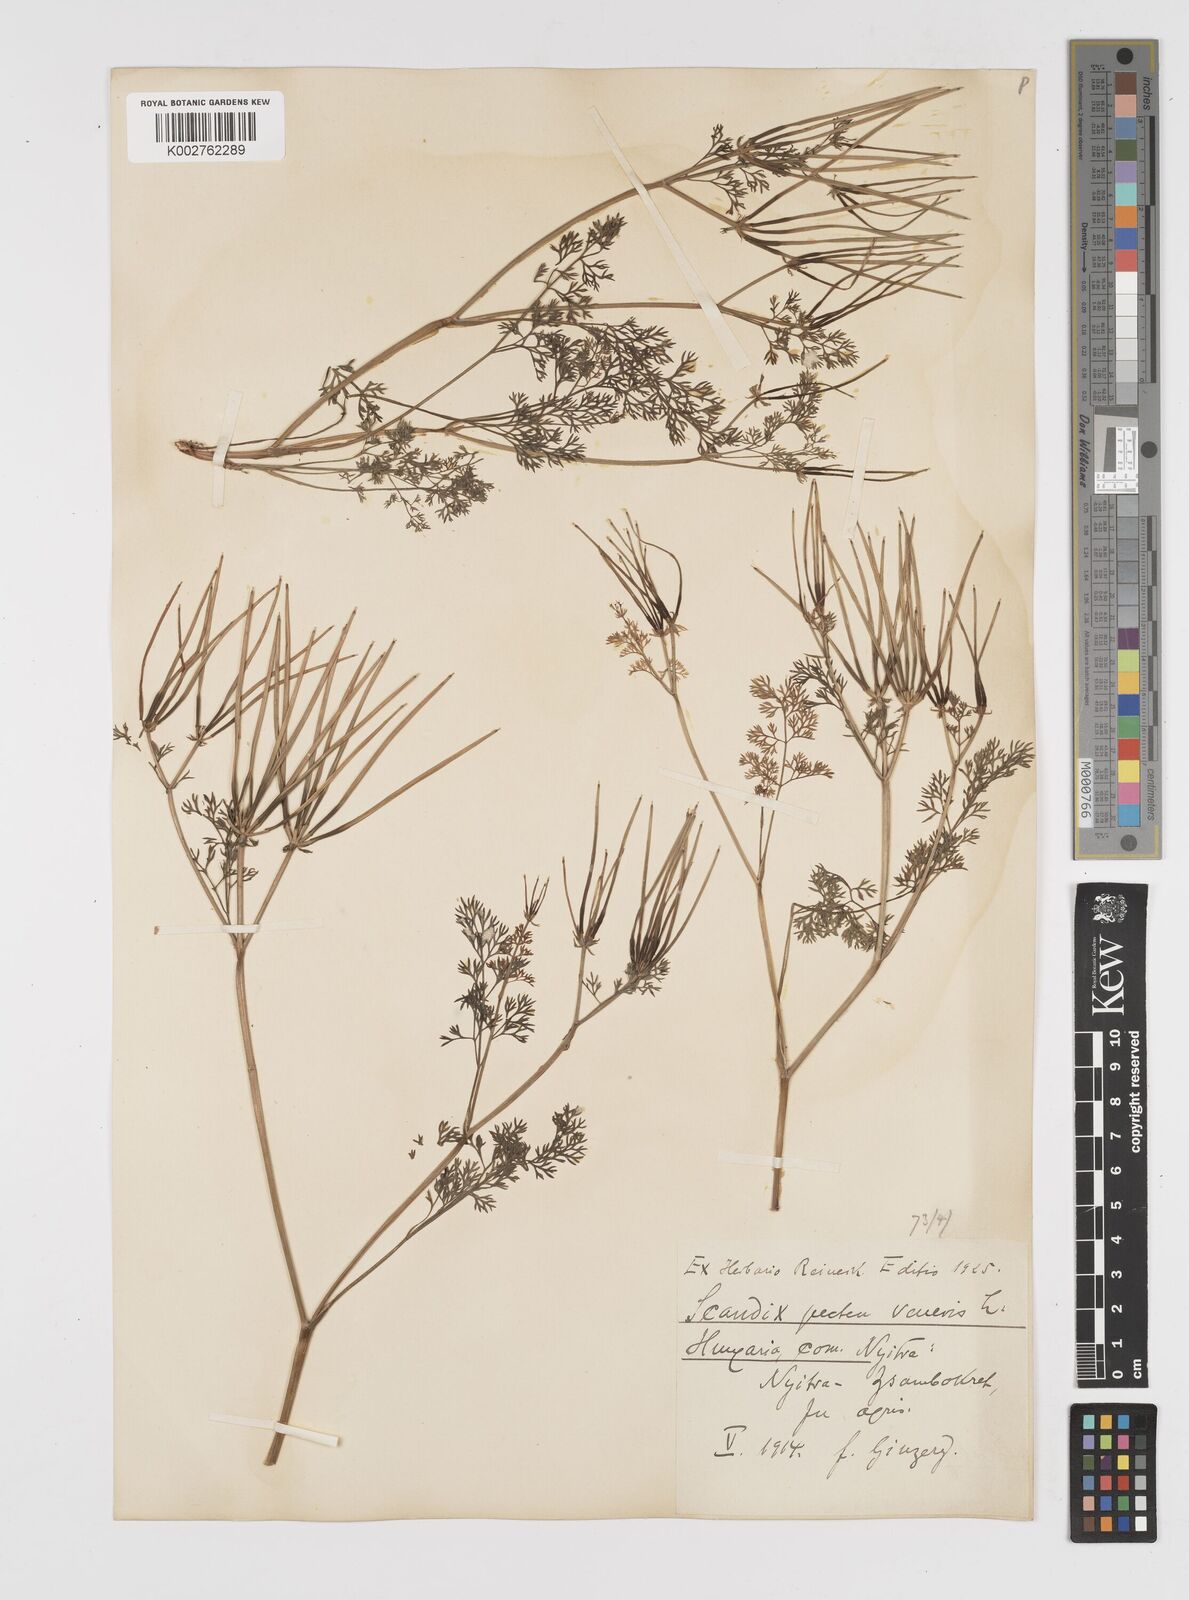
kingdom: Plantae
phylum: Tracheophyta
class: Magnoliopsida
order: Apiales
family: Apiaceae
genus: Scandix
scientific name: Scandix pecten-veneris
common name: Shepherd's-needle
